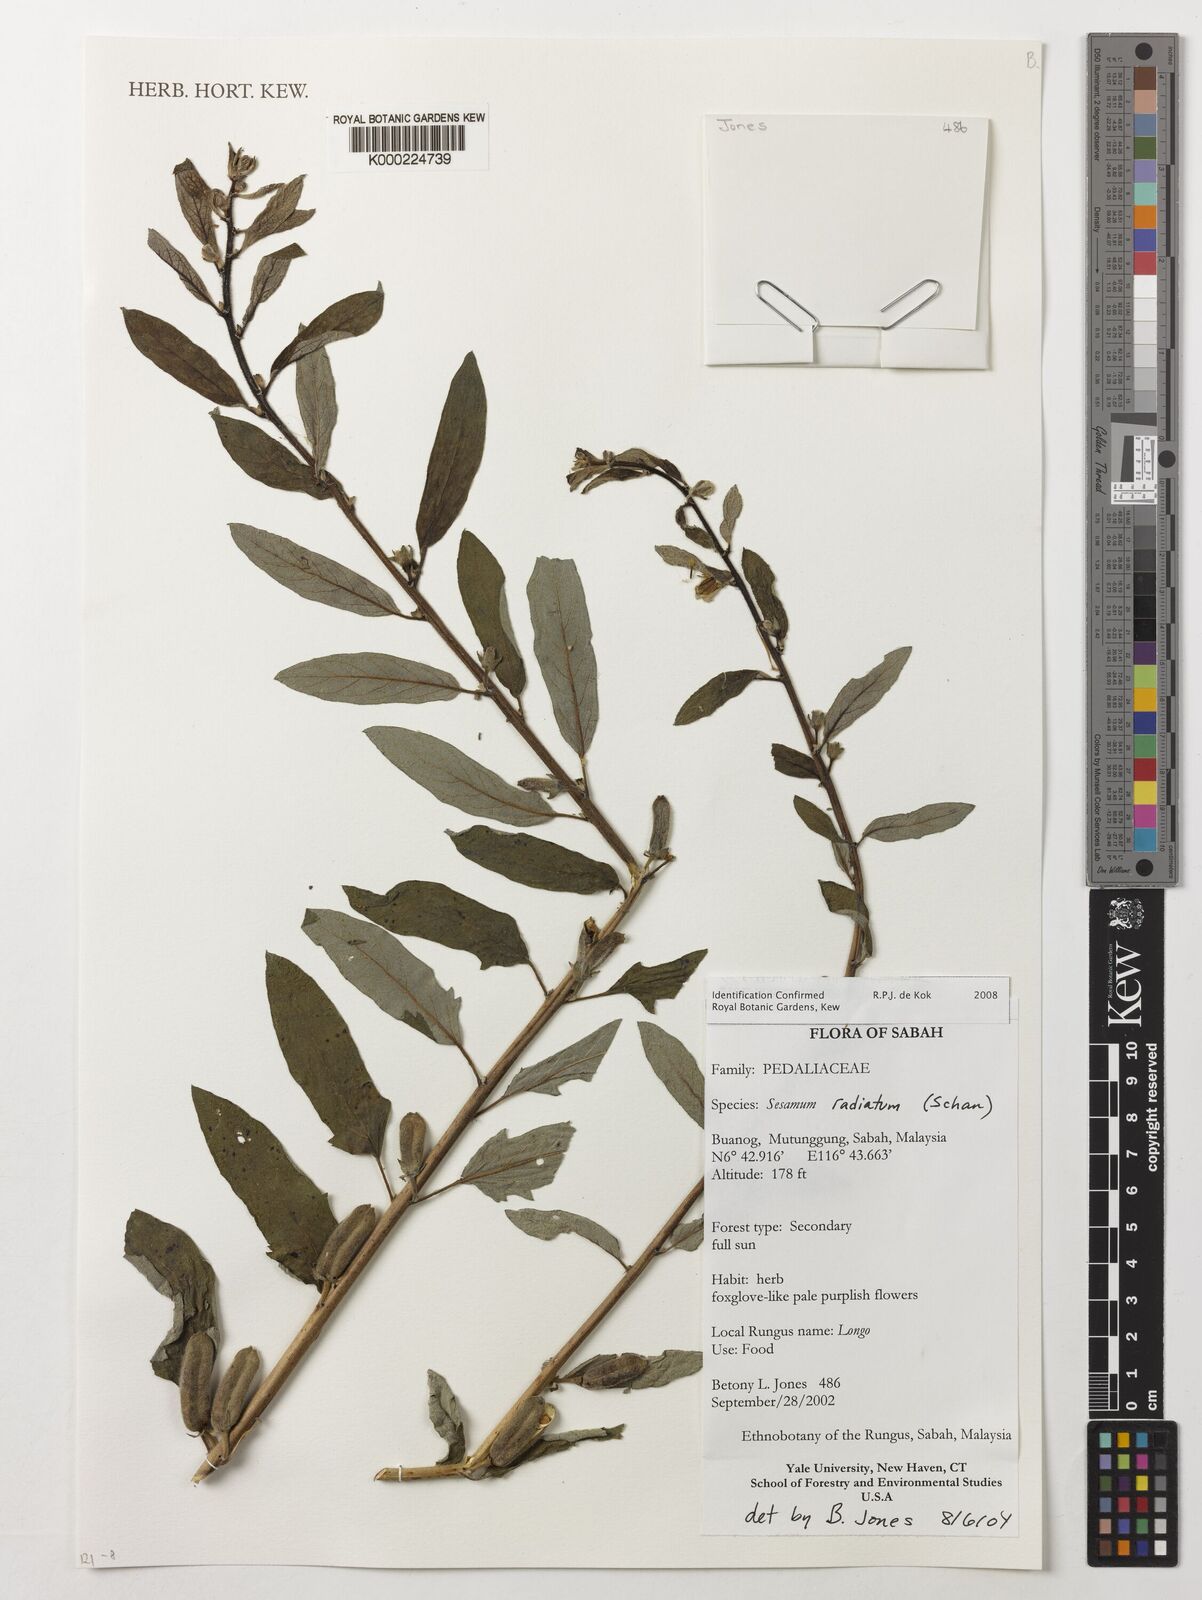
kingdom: Plantae
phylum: Tracheophyta
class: Magnoliopsida
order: Lamiales
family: Pedaliaceae
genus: Sesamum
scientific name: Sesamum
